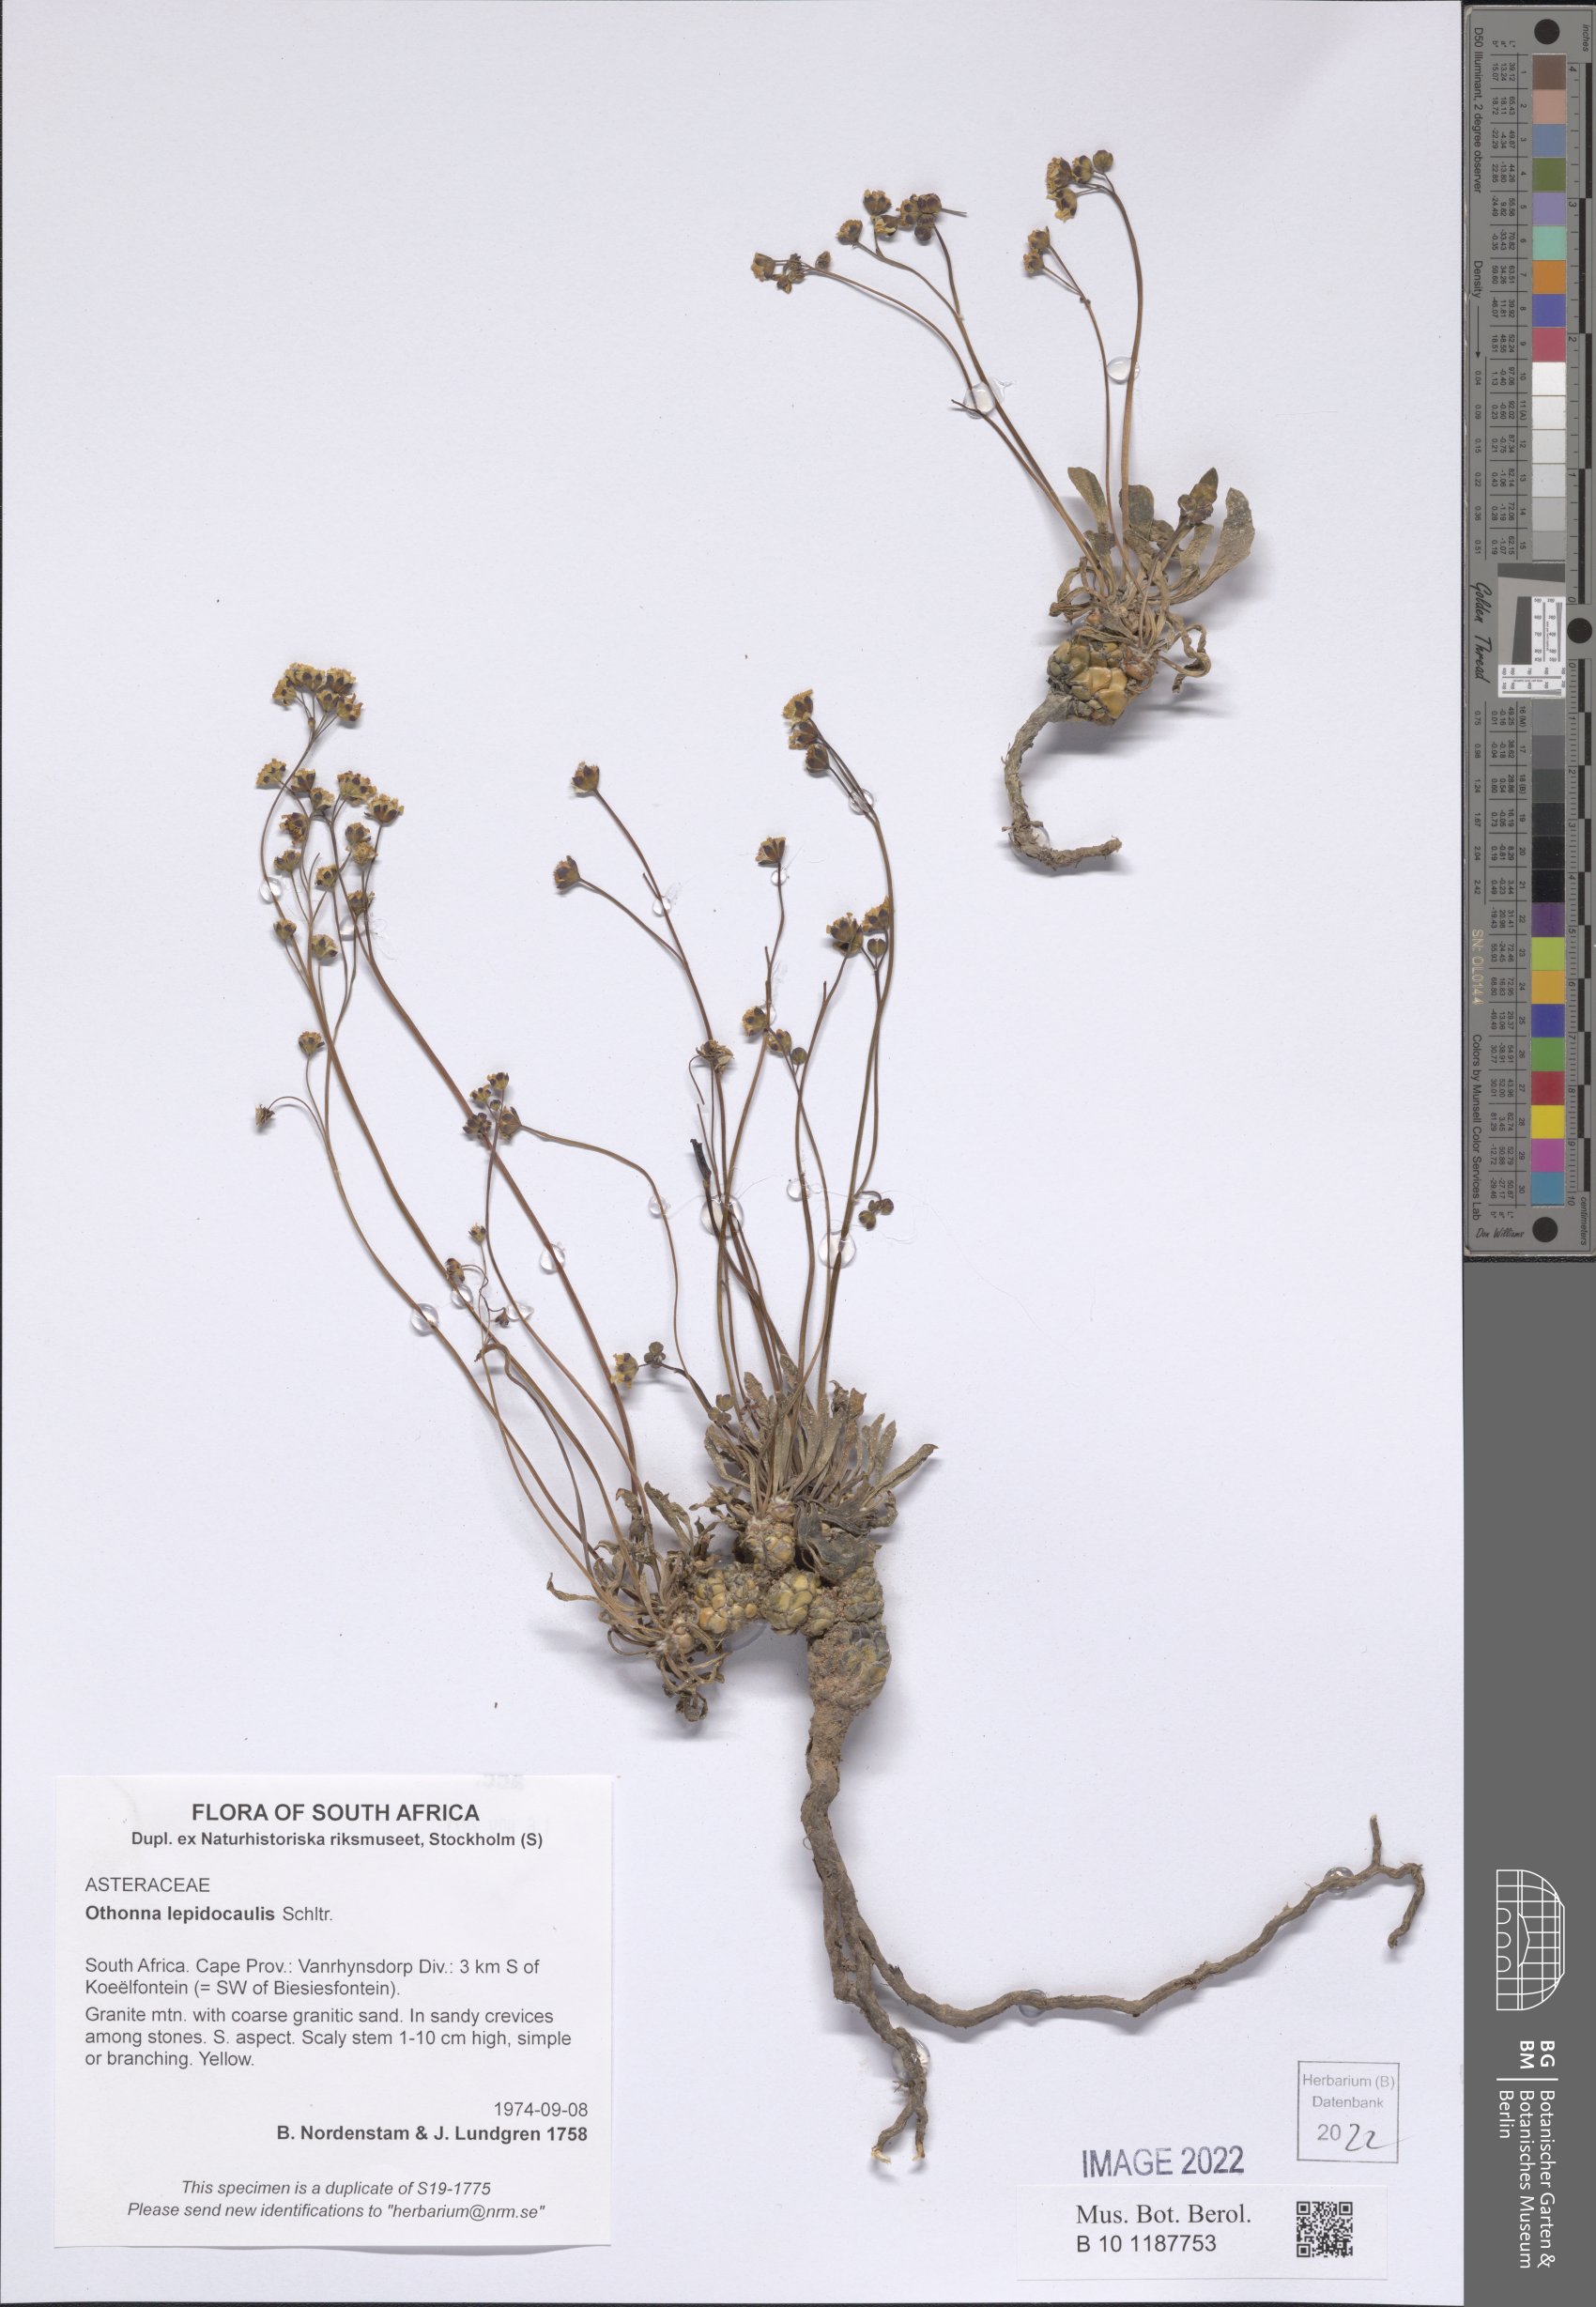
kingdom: Plantae
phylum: Tracheophyta
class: Magnoliopsida
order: Asterales
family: Asteraceae
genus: Othonna
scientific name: Othonna lepidocaulis
